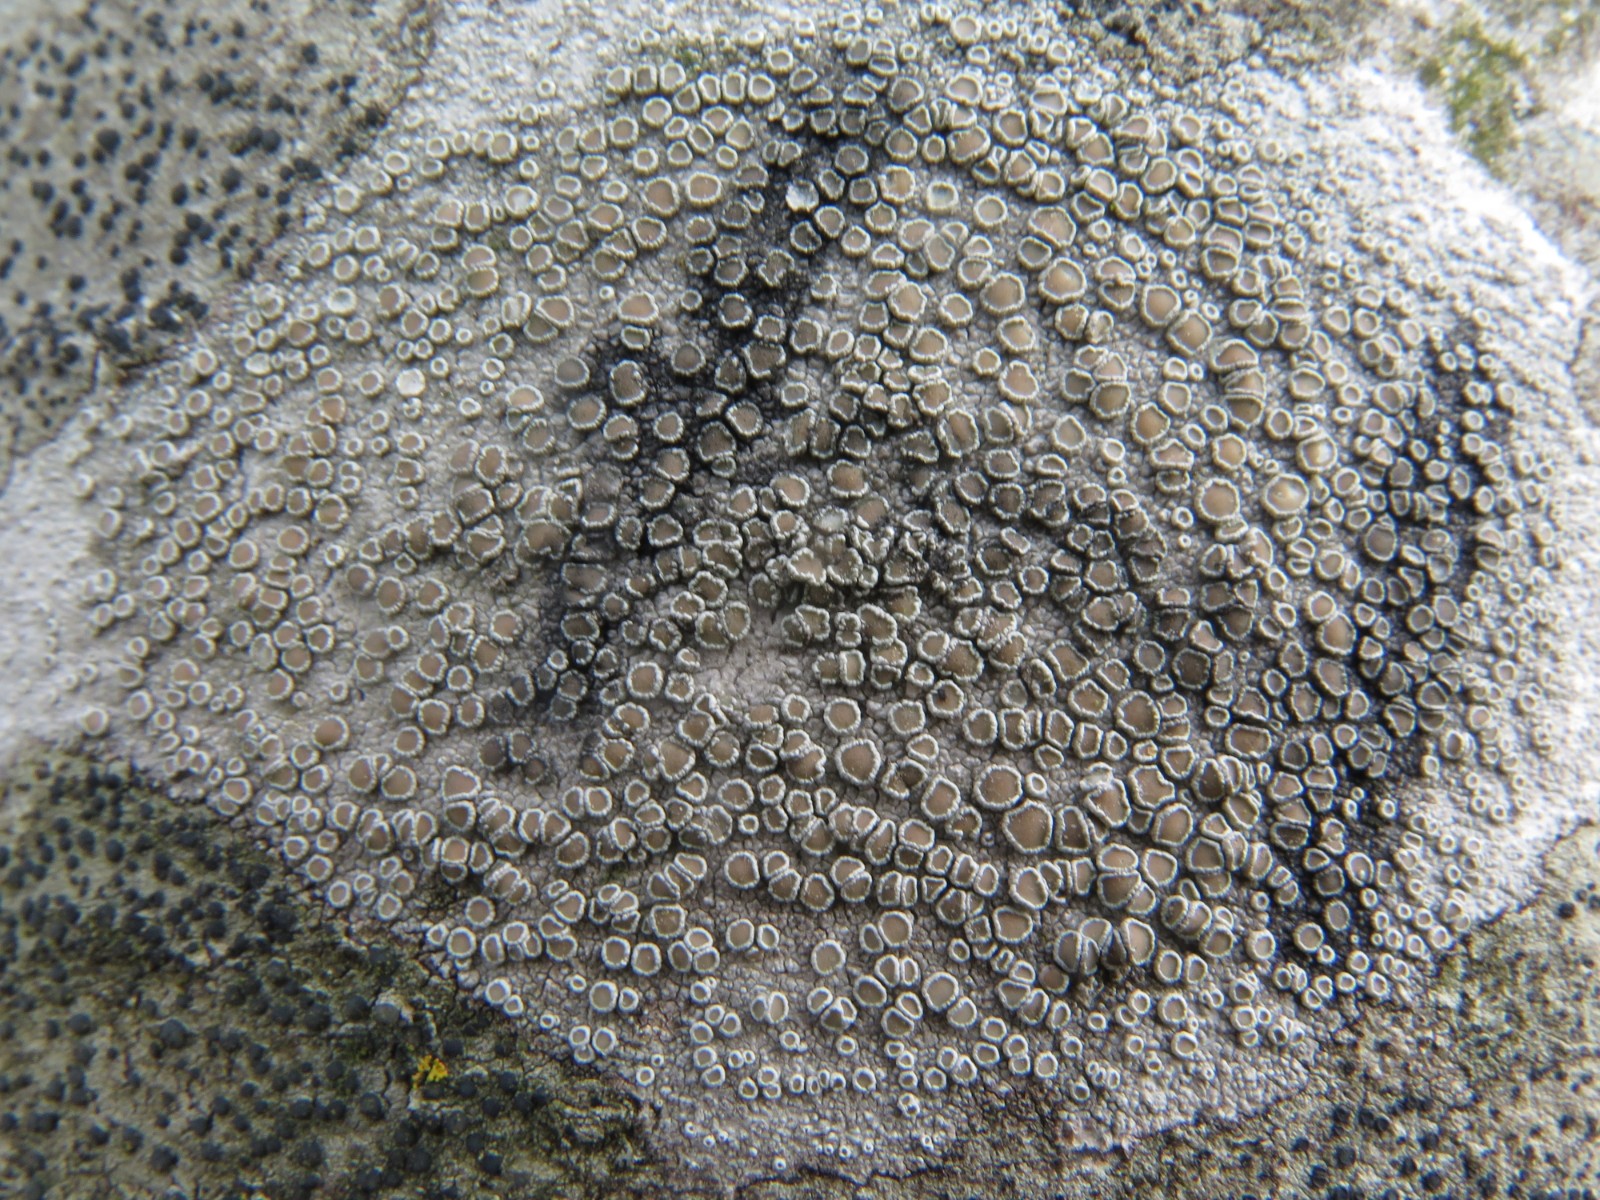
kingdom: Fungi
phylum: Ascomycota
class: Lecanoromycetes
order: Lecanorales
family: Lecanoraceae
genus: Lecanora
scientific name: Lecanora chlarotera
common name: brun kantskivelav
